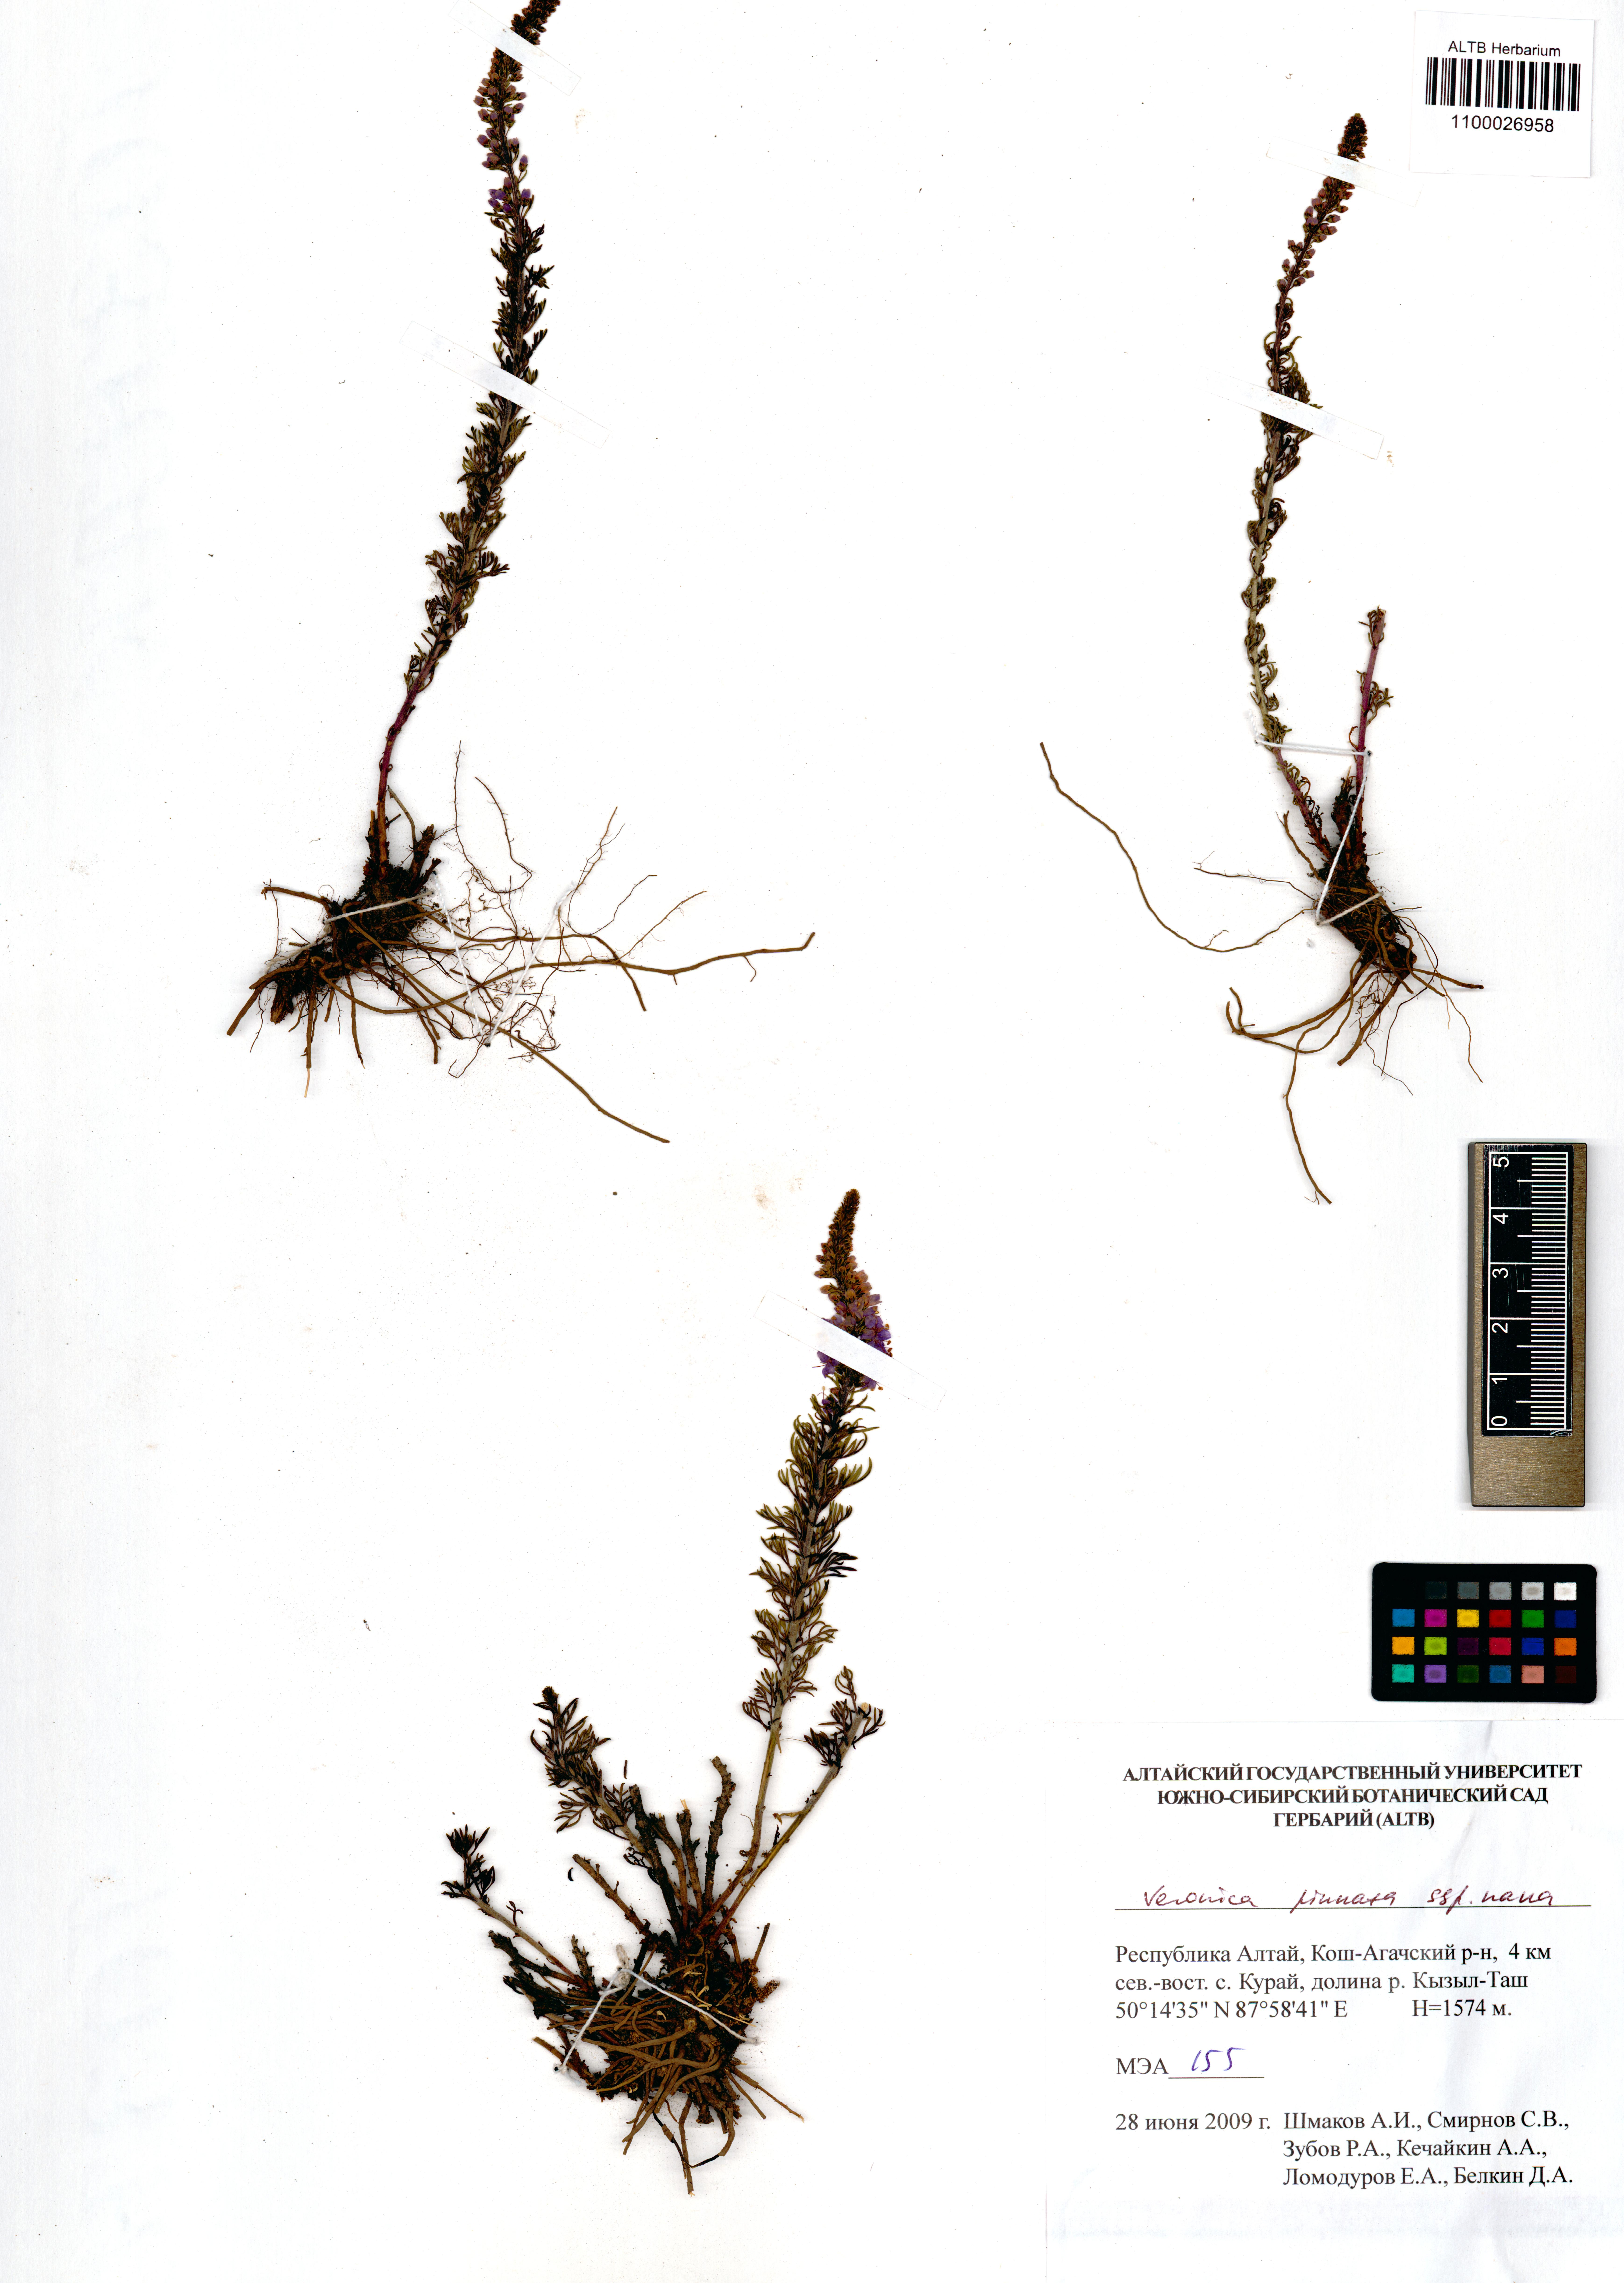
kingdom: Plantae
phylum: Tracheophyta
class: Magnoliopsida
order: Lamiales
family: Plantaginaceae
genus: Veronica
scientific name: Veronica pinnata
